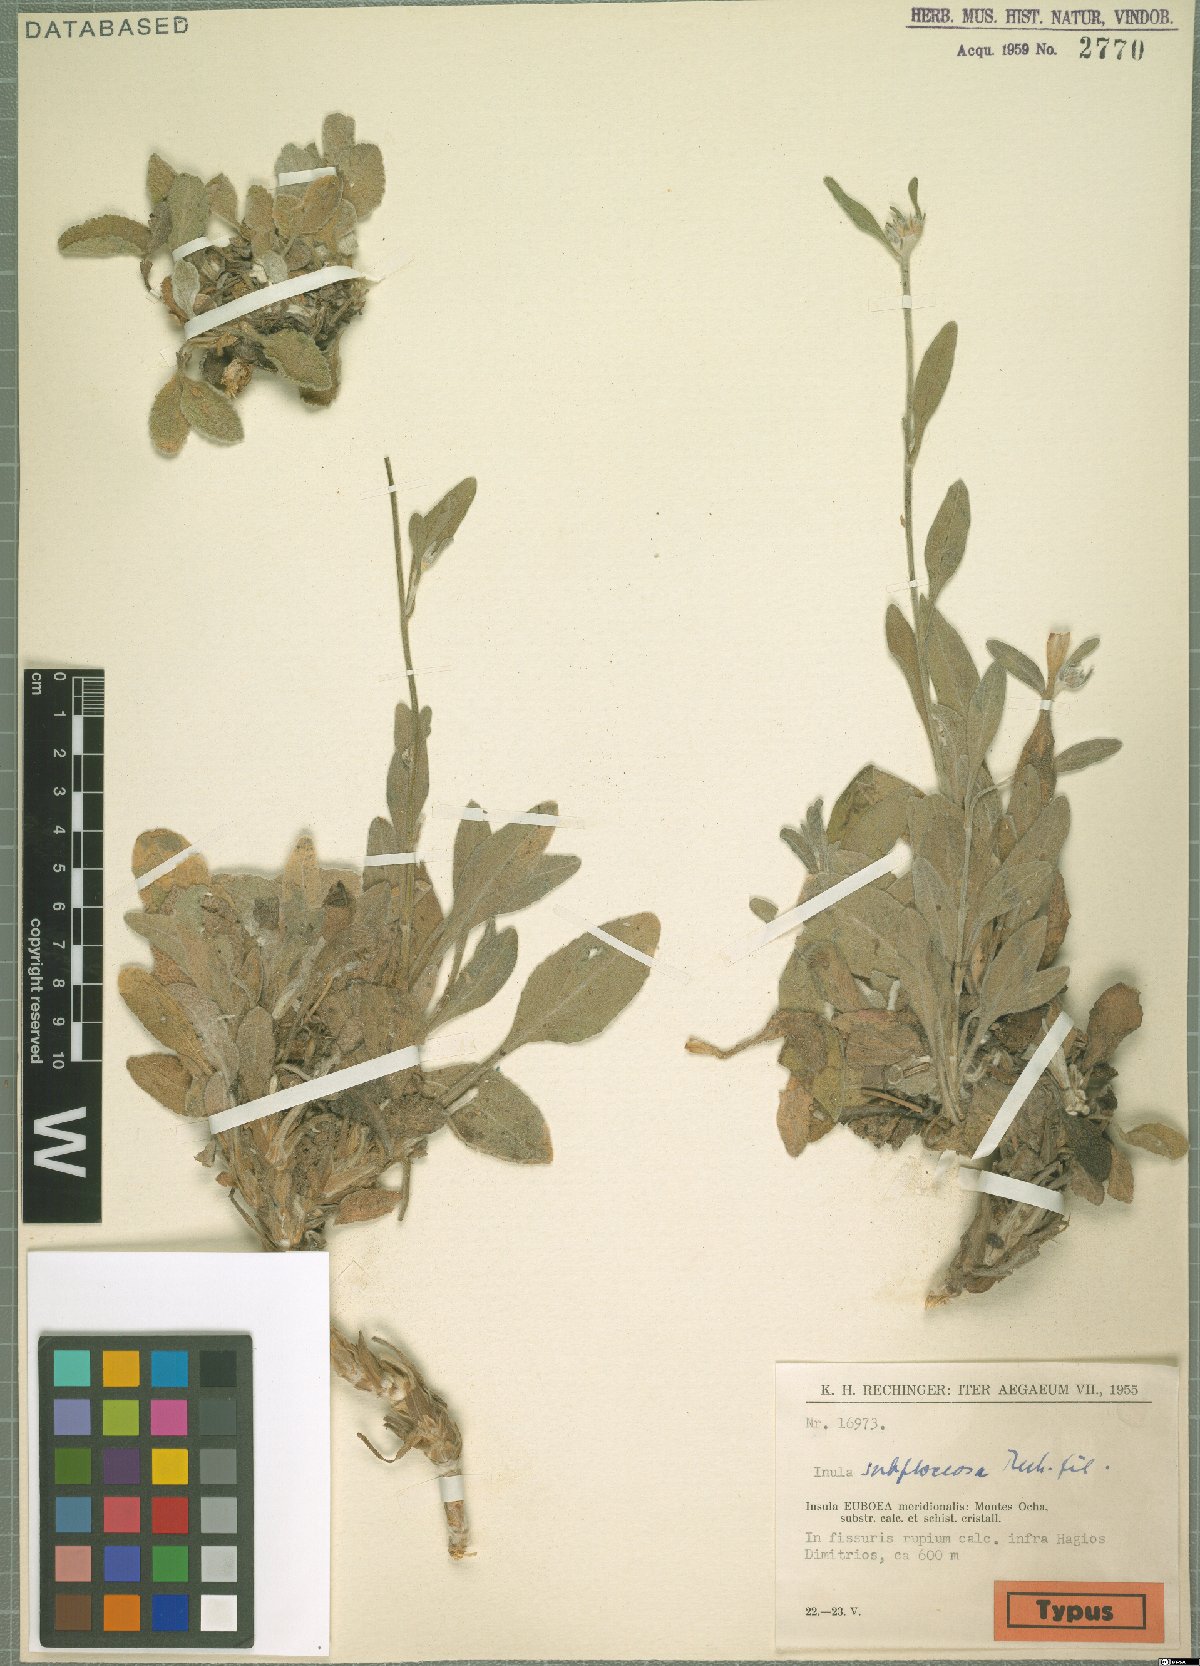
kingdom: Plantae
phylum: Tracheophyta
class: Magnoliopsida
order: Asterales
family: Asteraceae
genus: Inula
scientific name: Inula subfloccosa
